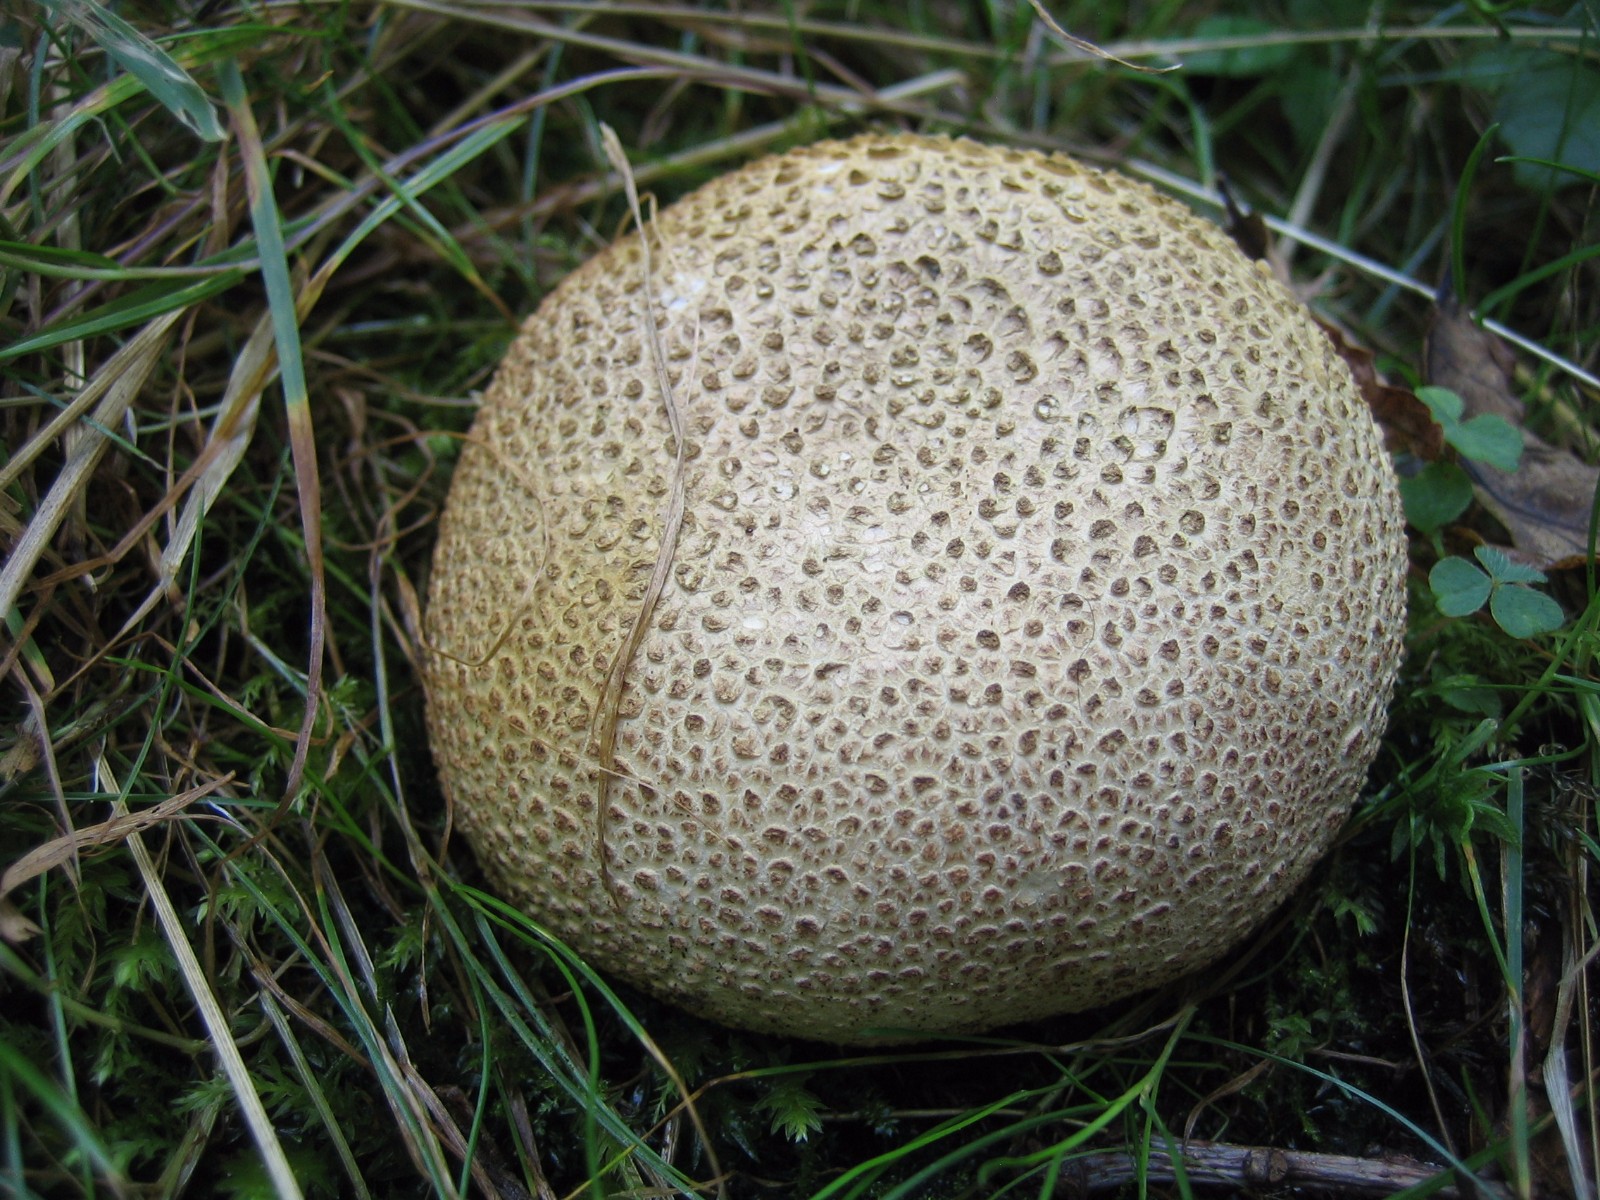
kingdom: Fungi
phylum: Basidiomycota
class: Agaricomycetes
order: Boletales
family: Sclerodermataceae
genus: Scleroderma
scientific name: Scleroderma citrinum
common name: almindelig bruskbold
